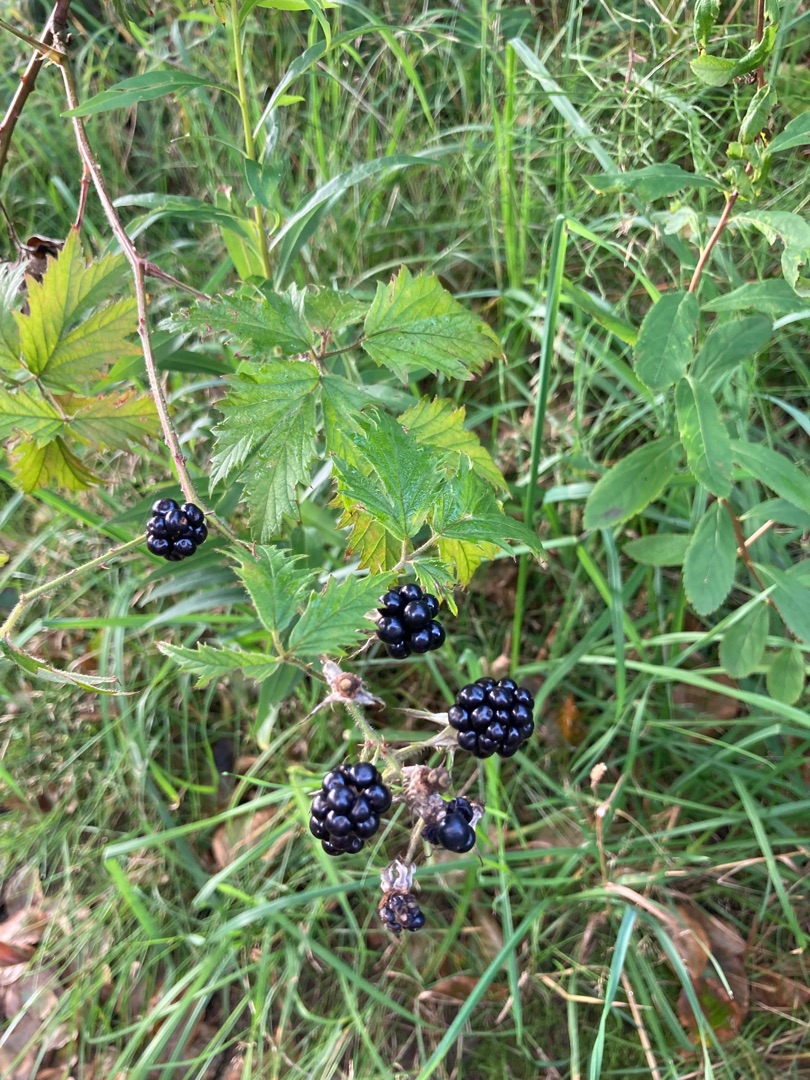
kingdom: Plantae
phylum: Tracheophyta
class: Magnoliopsida
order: Rosales
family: Rosaceae
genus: Rubus
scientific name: Rubus laciniatus
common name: Fliget brombær
